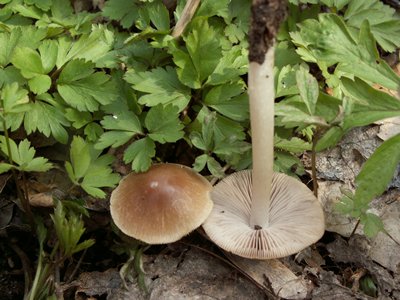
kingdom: Fungi
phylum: Basidiomycota
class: Agaricomycetes
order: Agaricales
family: Psathyrellaceae
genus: Psathyrella
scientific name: Psathyrella spadiceogrisea
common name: gråbrun mørkhat
